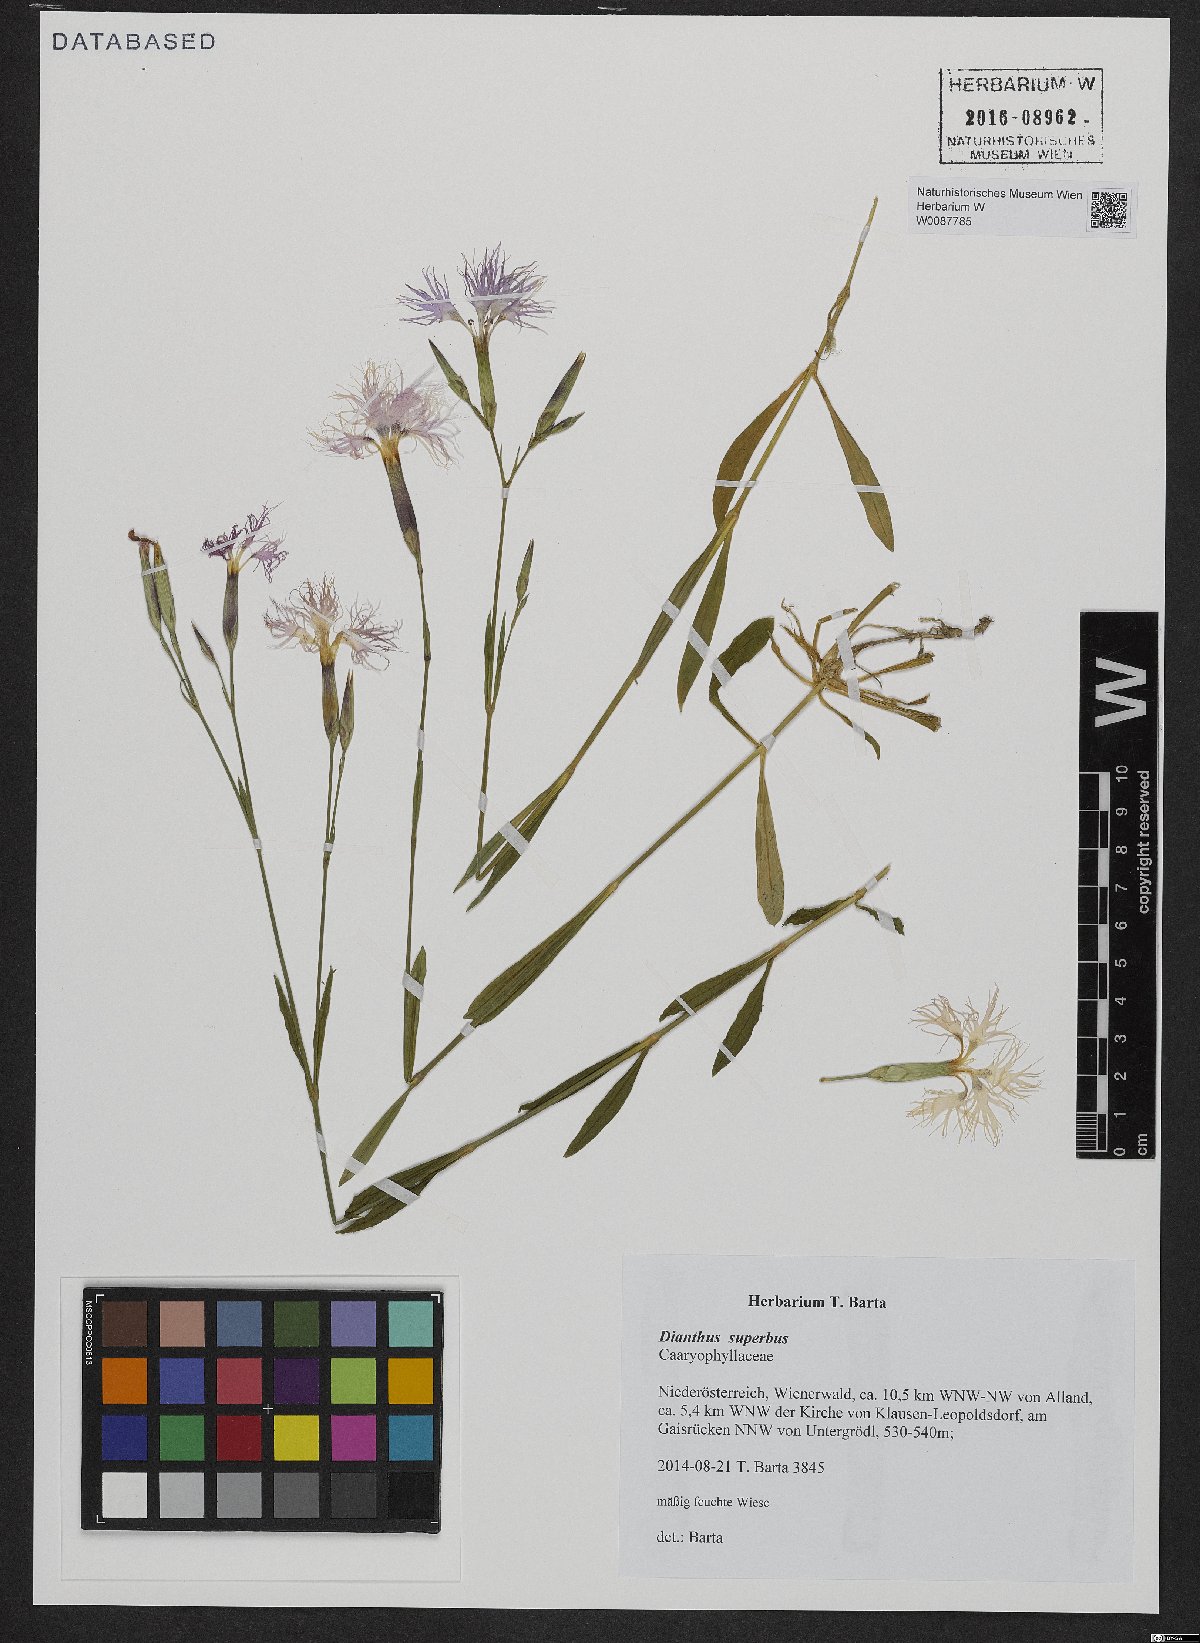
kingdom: Plantae
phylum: Tracheophyta
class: Magnoliopsida
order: Caryophyllales
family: Caryophyllaceae
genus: Dianthus
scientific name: Dianthus superbus
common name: Fringed pink
